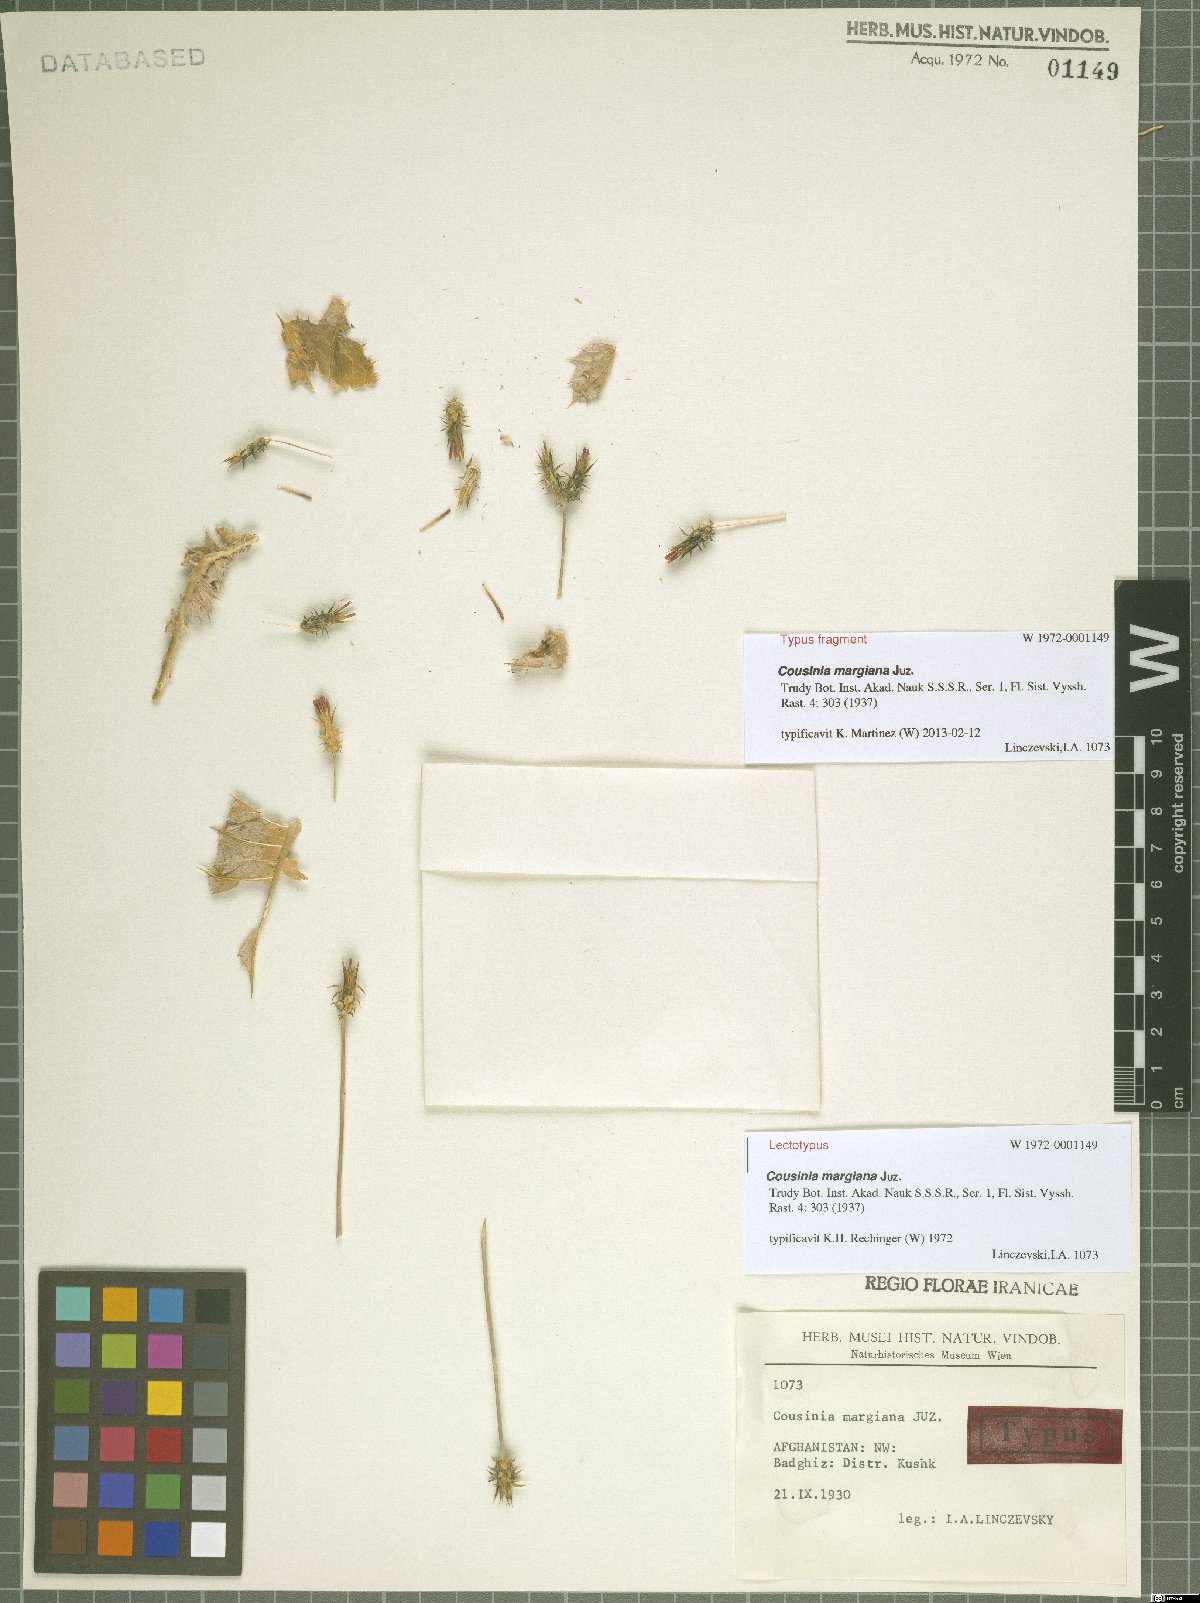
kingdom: Plantae
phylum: Tracheophyta
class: Magnoliopsida
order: Asterales
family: Asteraceae
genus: Cousinia
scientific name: Cousinia margiana
